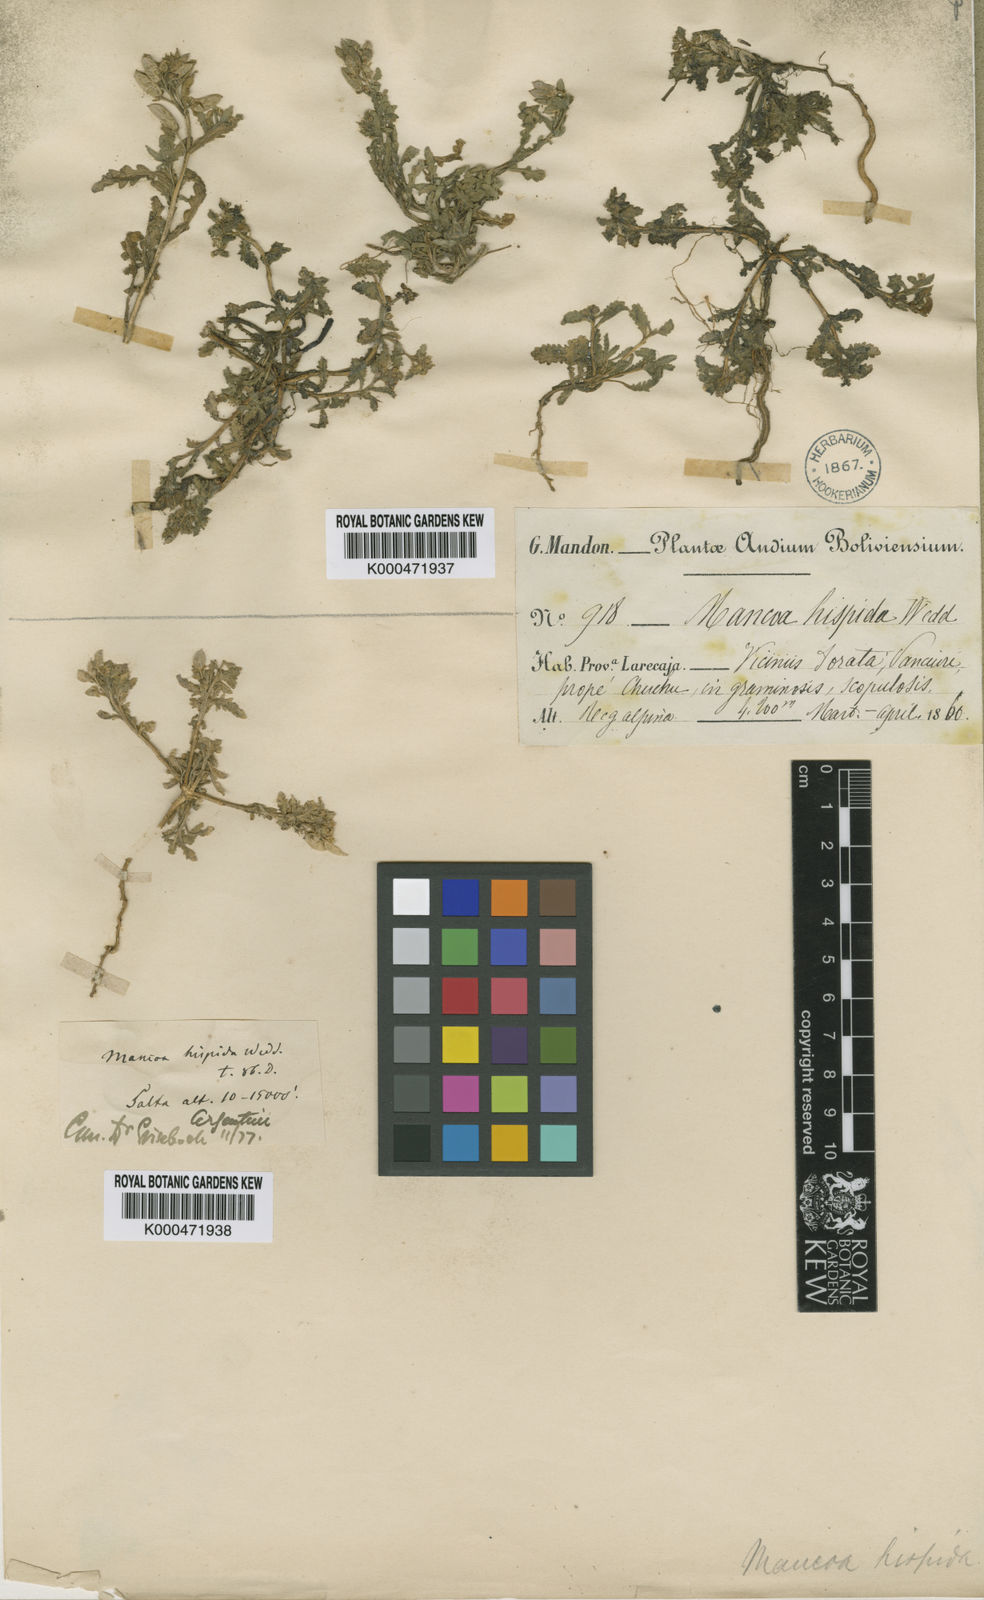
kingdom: Plantae
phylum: Tracheophyta
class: Magnoliopsida
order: Brassicales
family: Brassicaceae
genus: Mancoa
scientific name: Mancoa hispida
